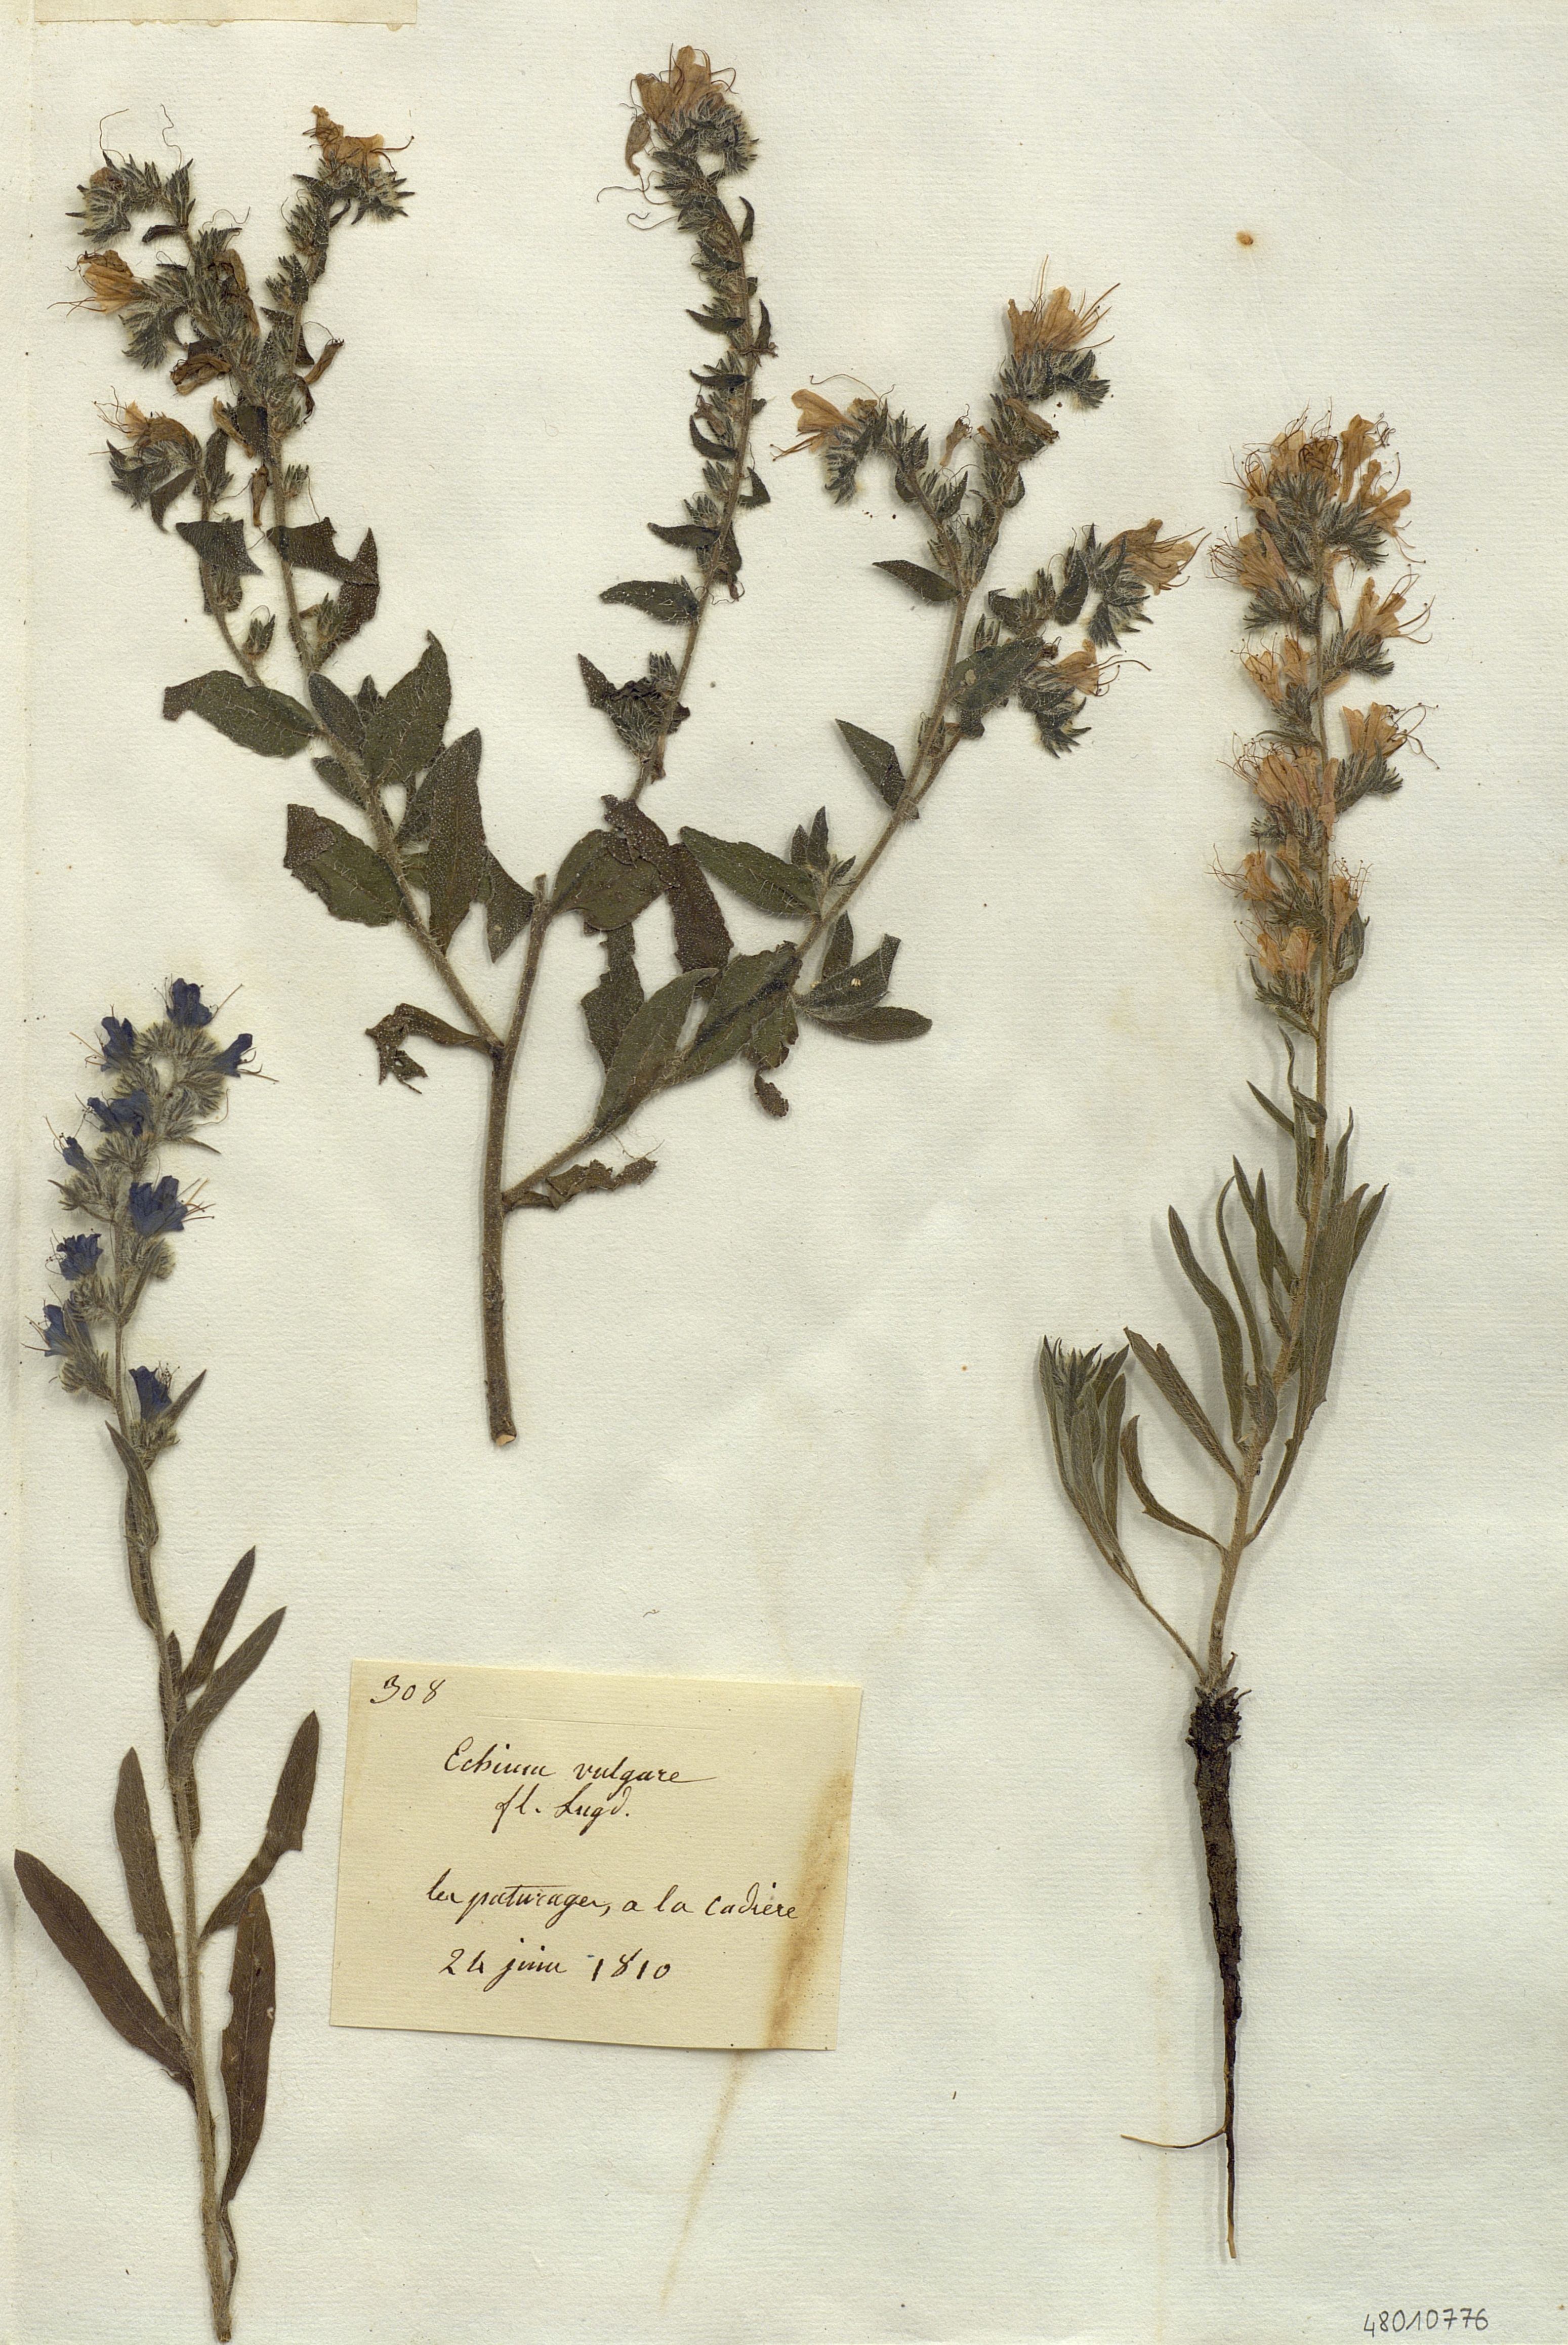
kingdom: Plantae
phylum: Tracheophyta
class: Magnoliopsida
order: Boraginales
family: Boraginaceae
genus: Echium
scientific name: Echium vulgare
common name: Common viper's bugloss
